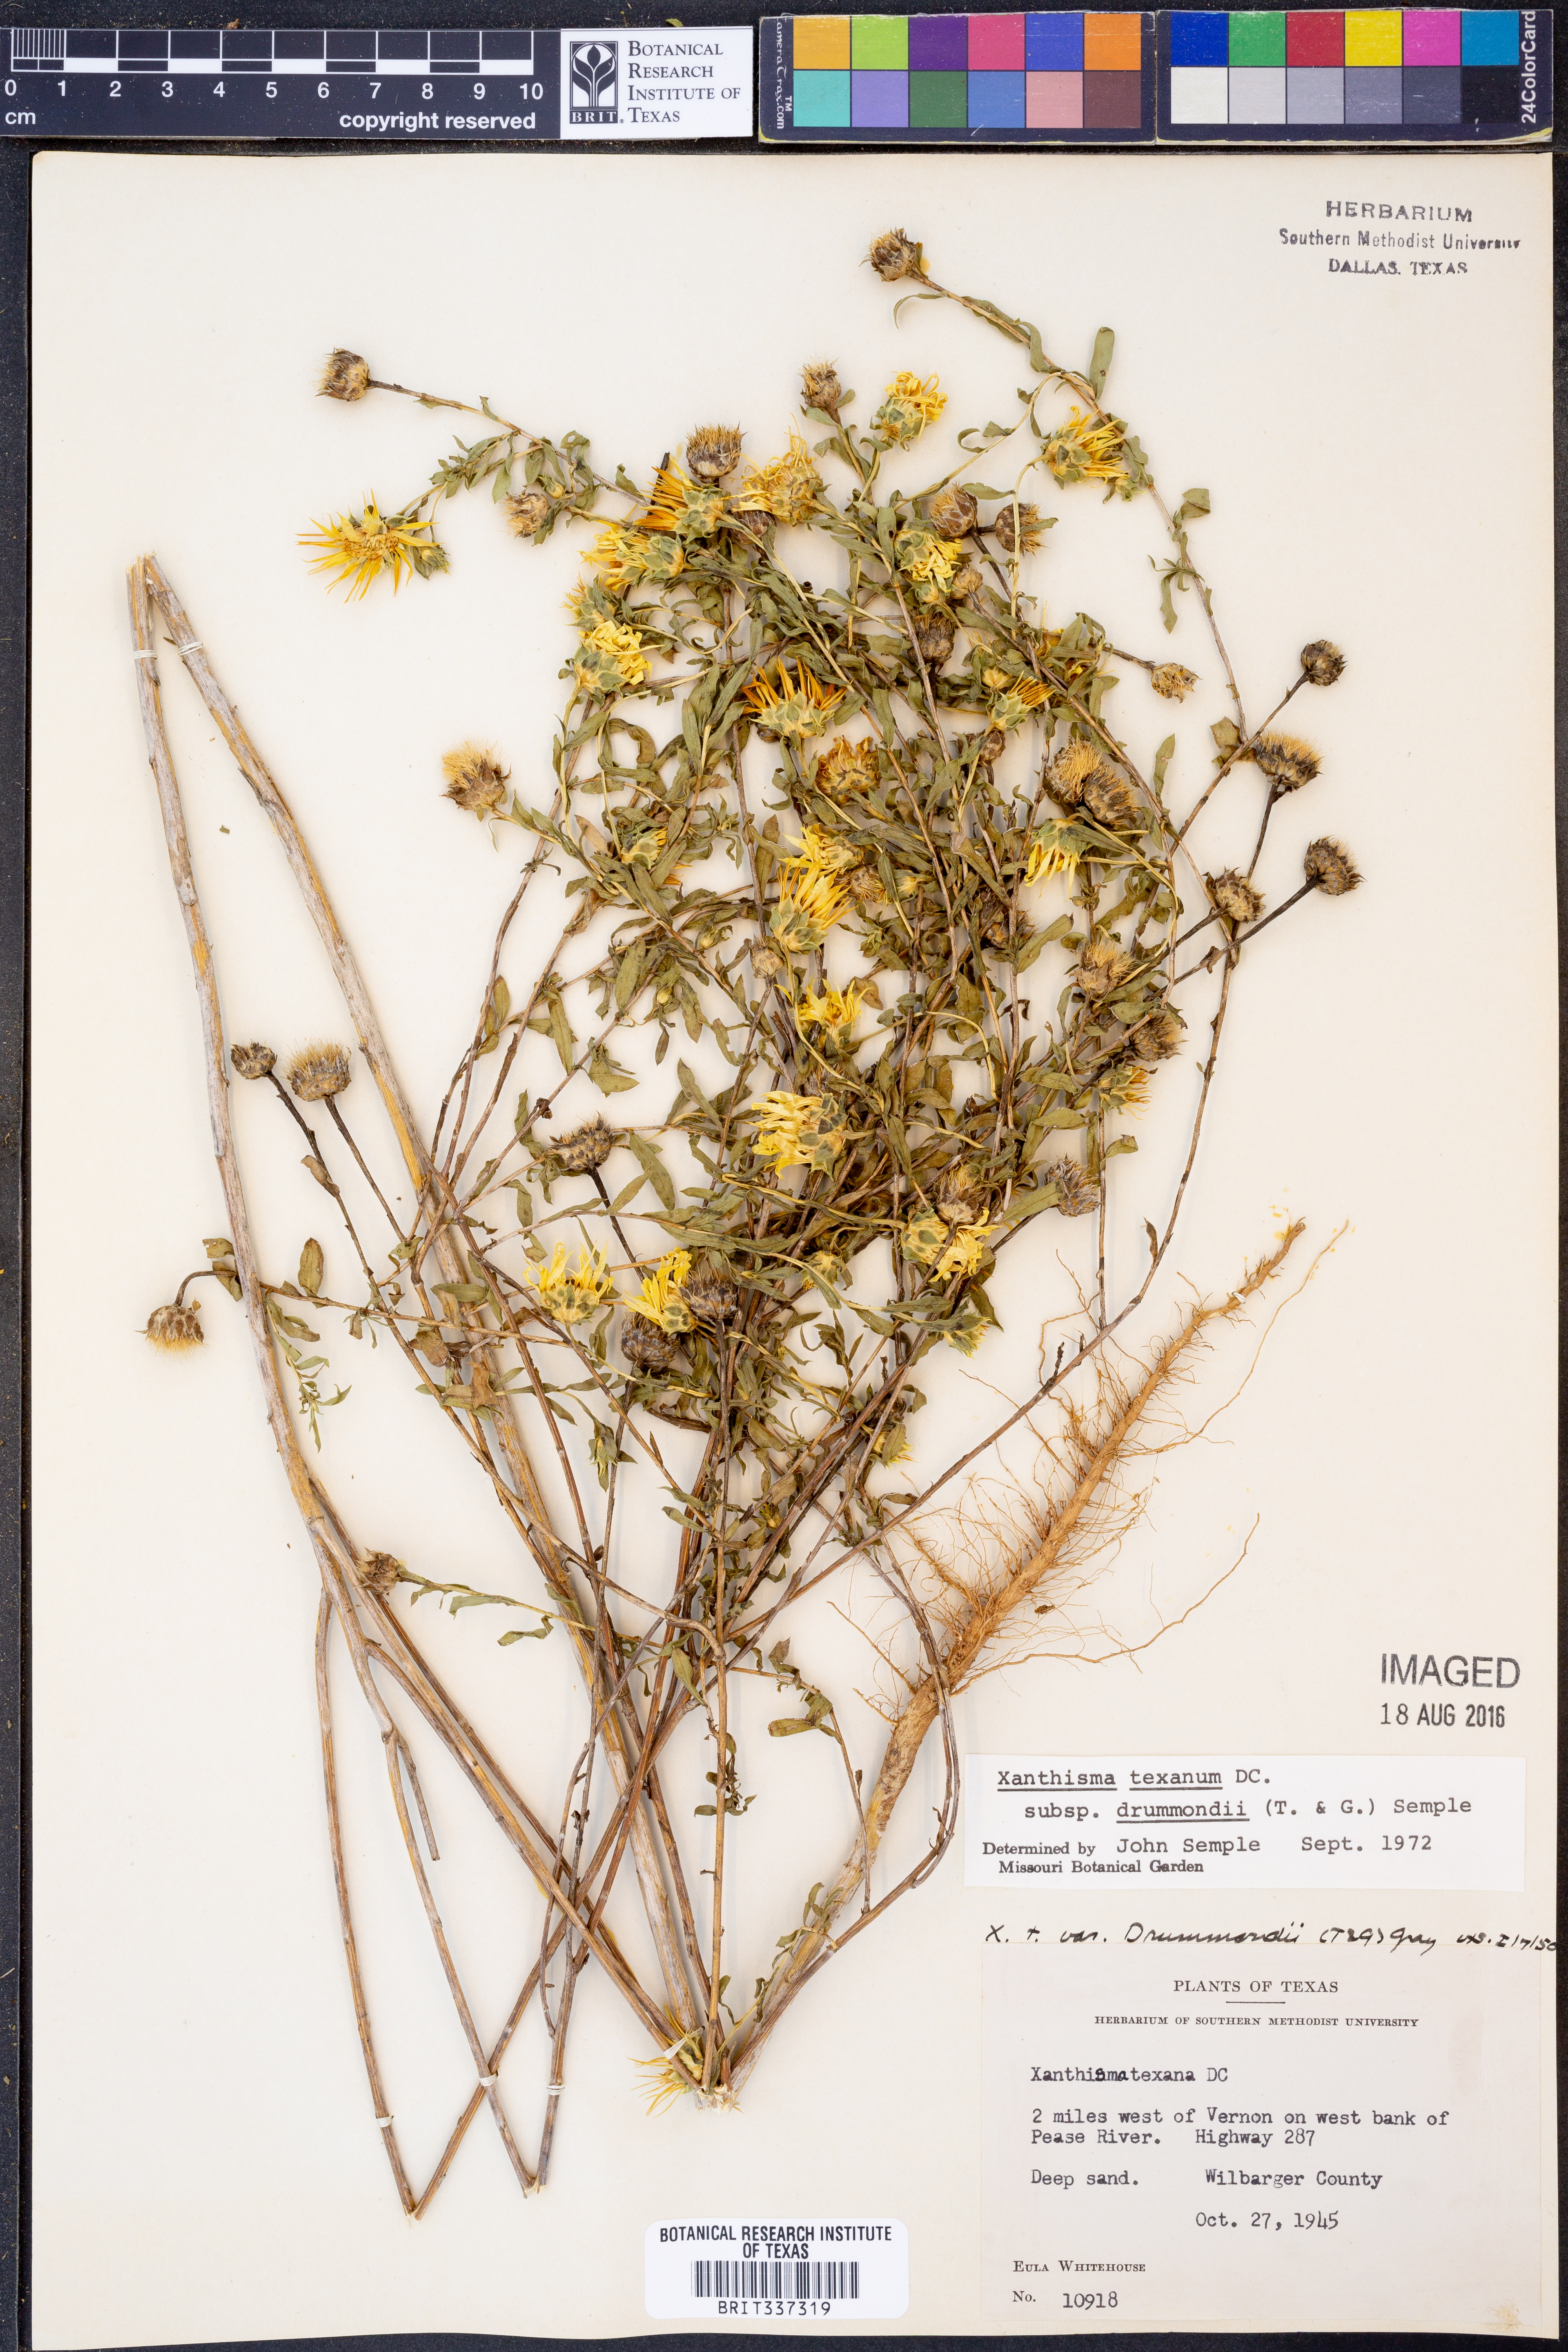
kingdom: Plantae
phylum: Tracheophyta
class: Magnoliopsida
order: Asterales
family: Asteraceae
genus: Xanthisma
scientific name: Xanthisma texanum
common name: Texas sleepy daisy
